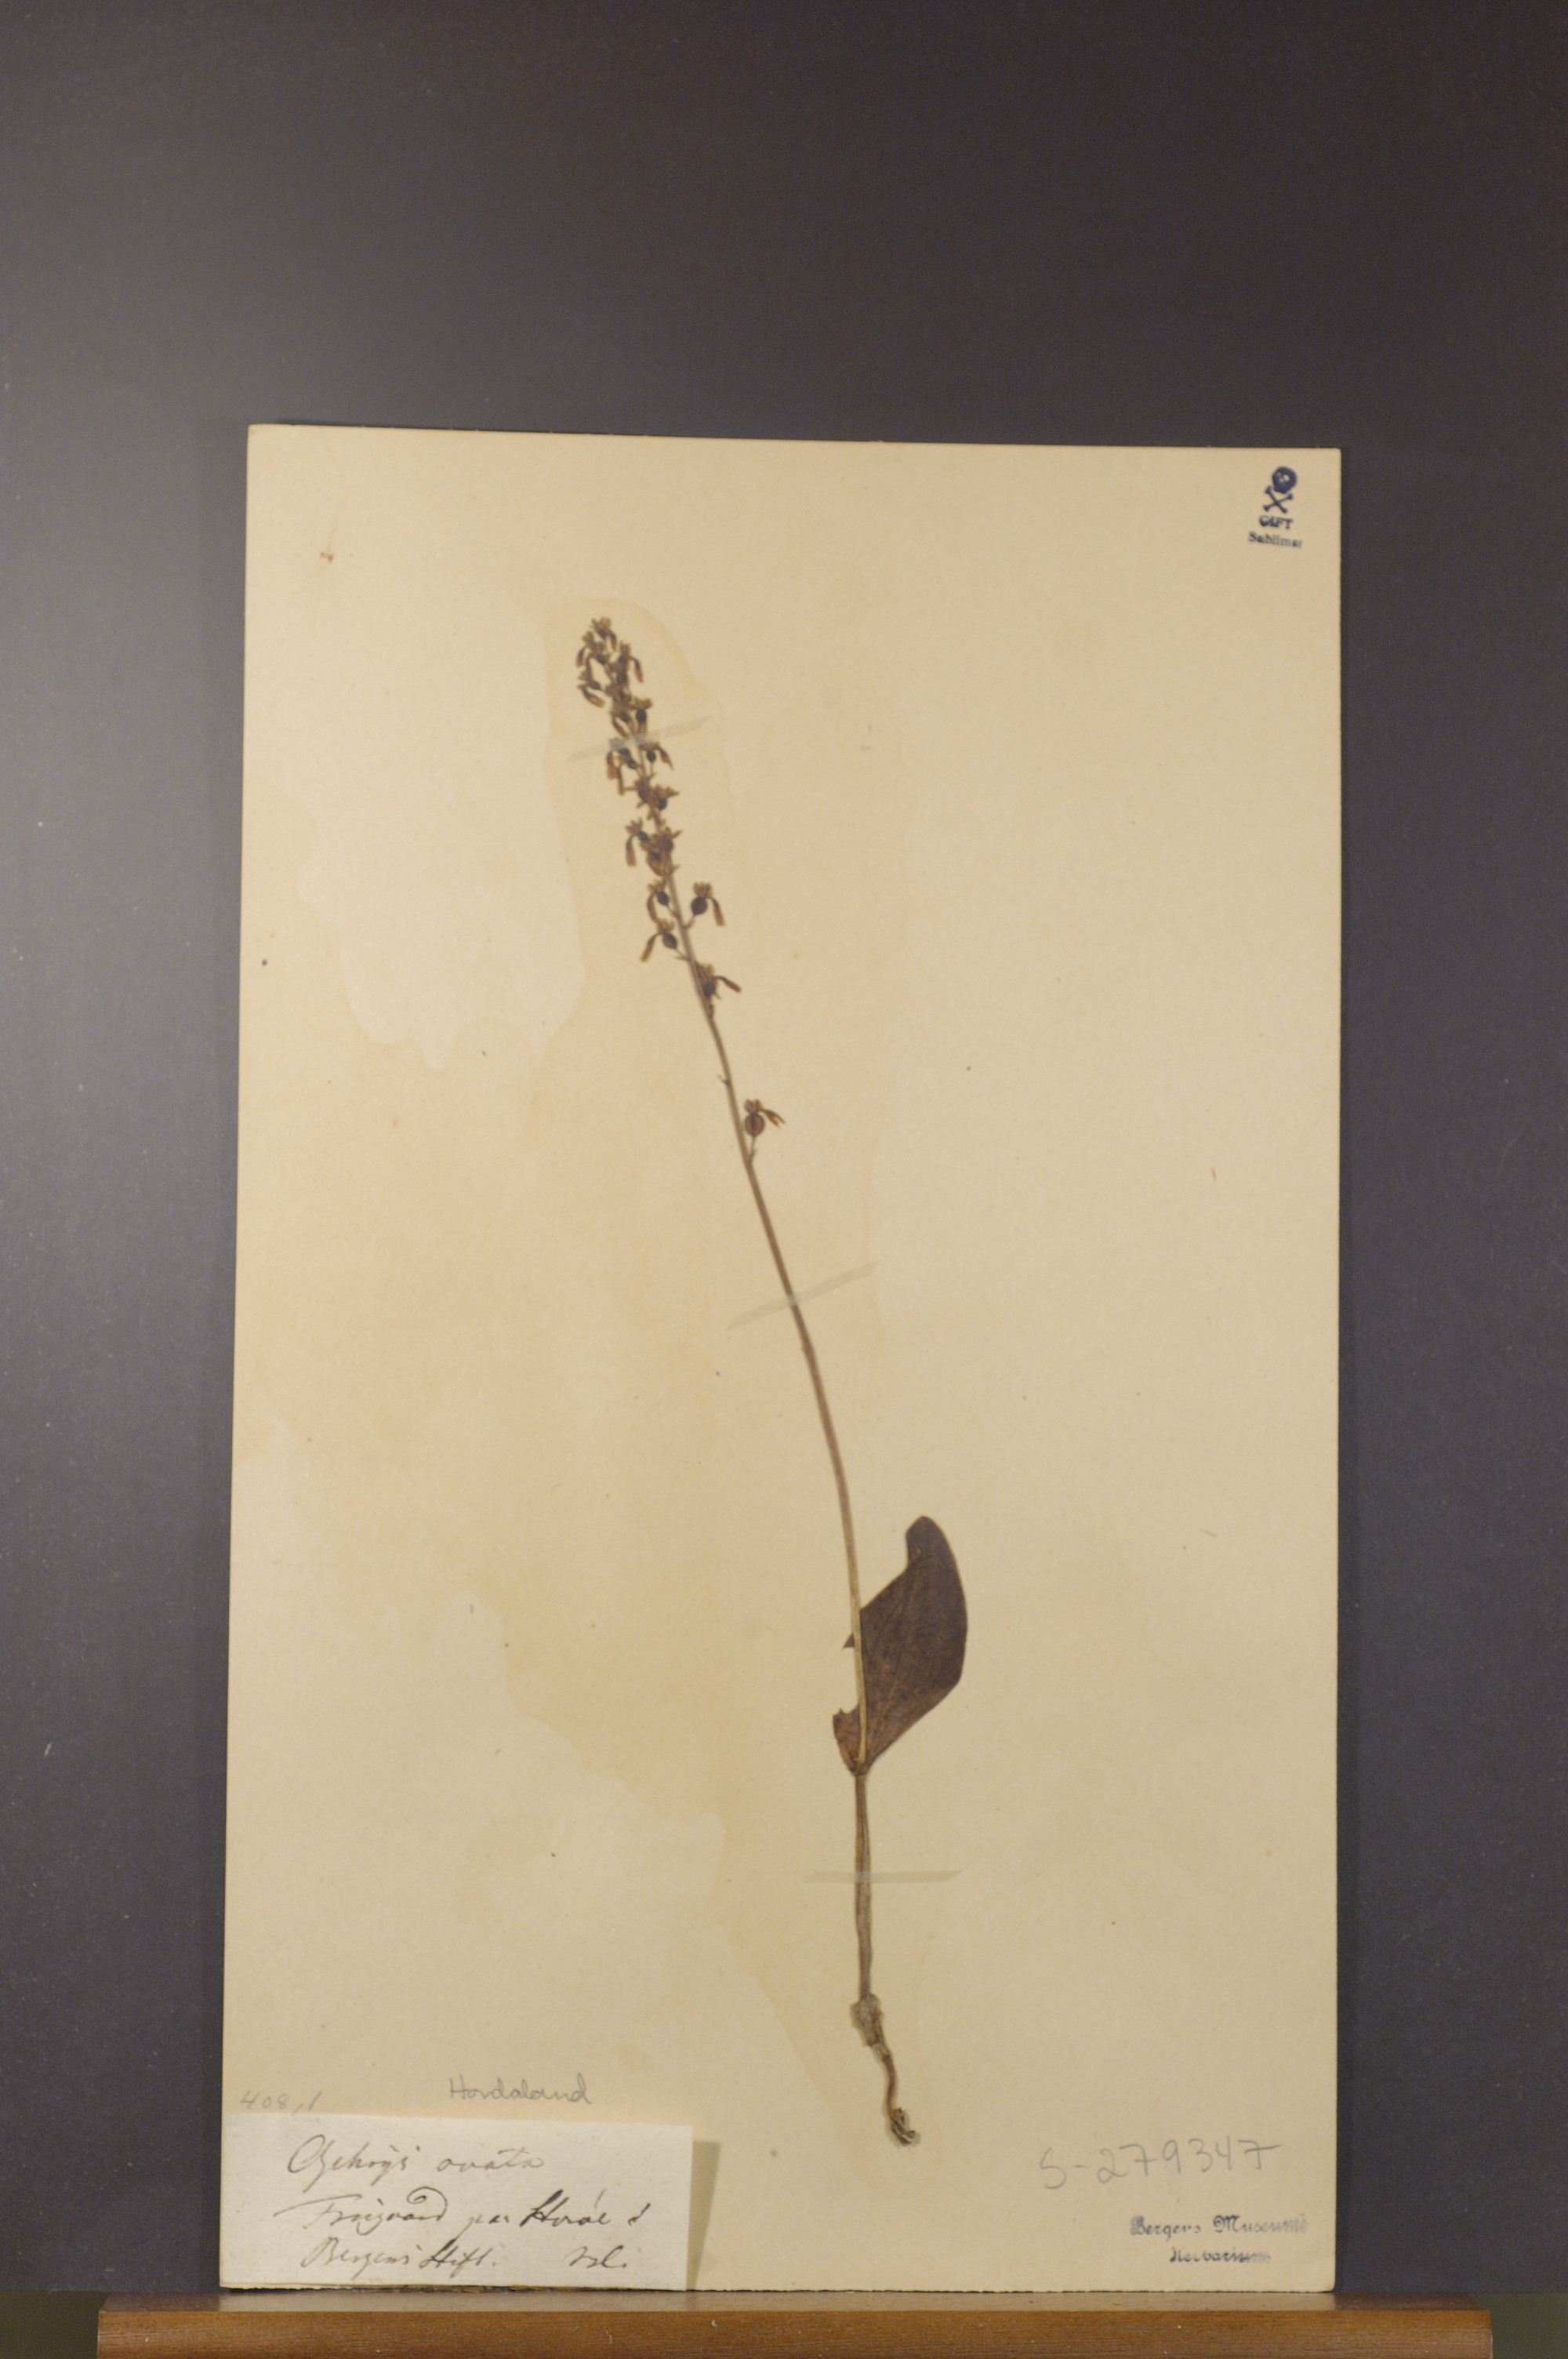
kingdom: Plantae
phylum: Tracheophyta
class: Liliopsida
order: Asparagales
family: Orchidaceae
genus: Neottia
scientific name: Neottia ovata
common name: Common twayblade
